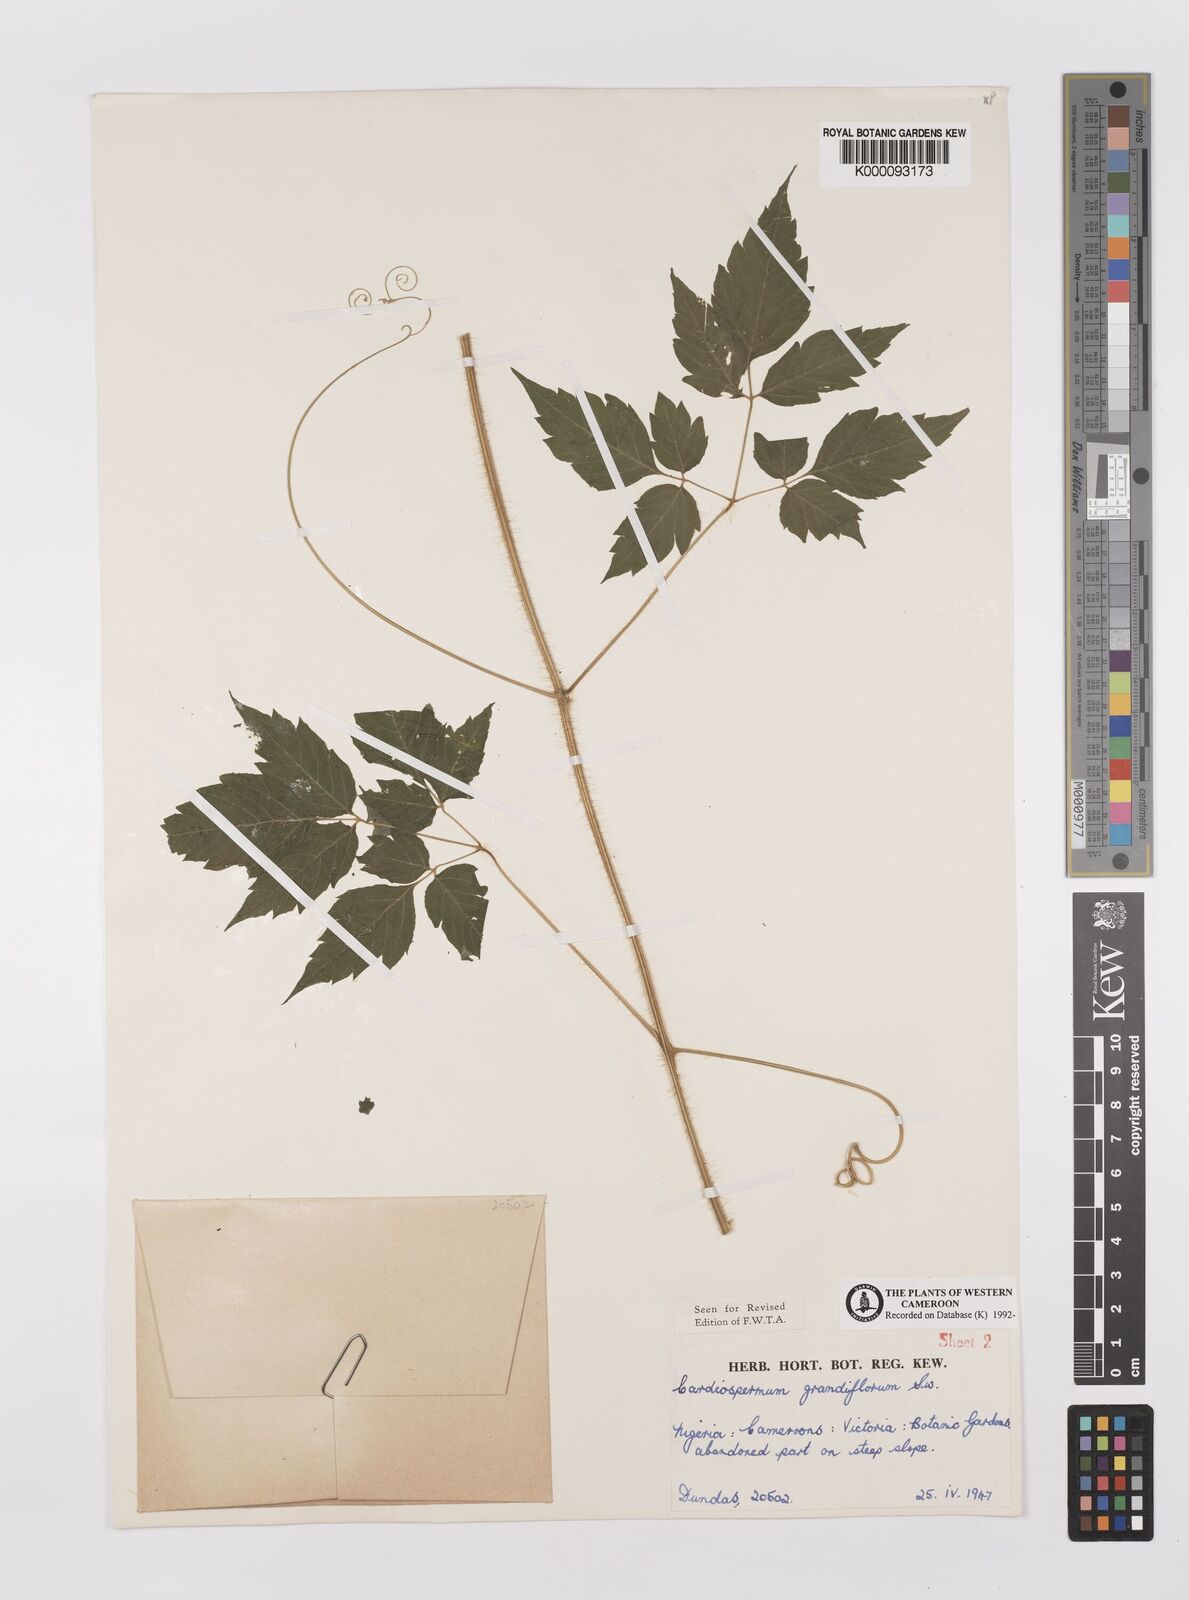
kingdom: Plantae
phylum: Tracheophyta
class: Magnoliopsida
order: Sapindales
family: Sapindaceae
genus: Cardiospermum
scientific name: Cardiospermum grandiflorum
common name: Balloon vine
